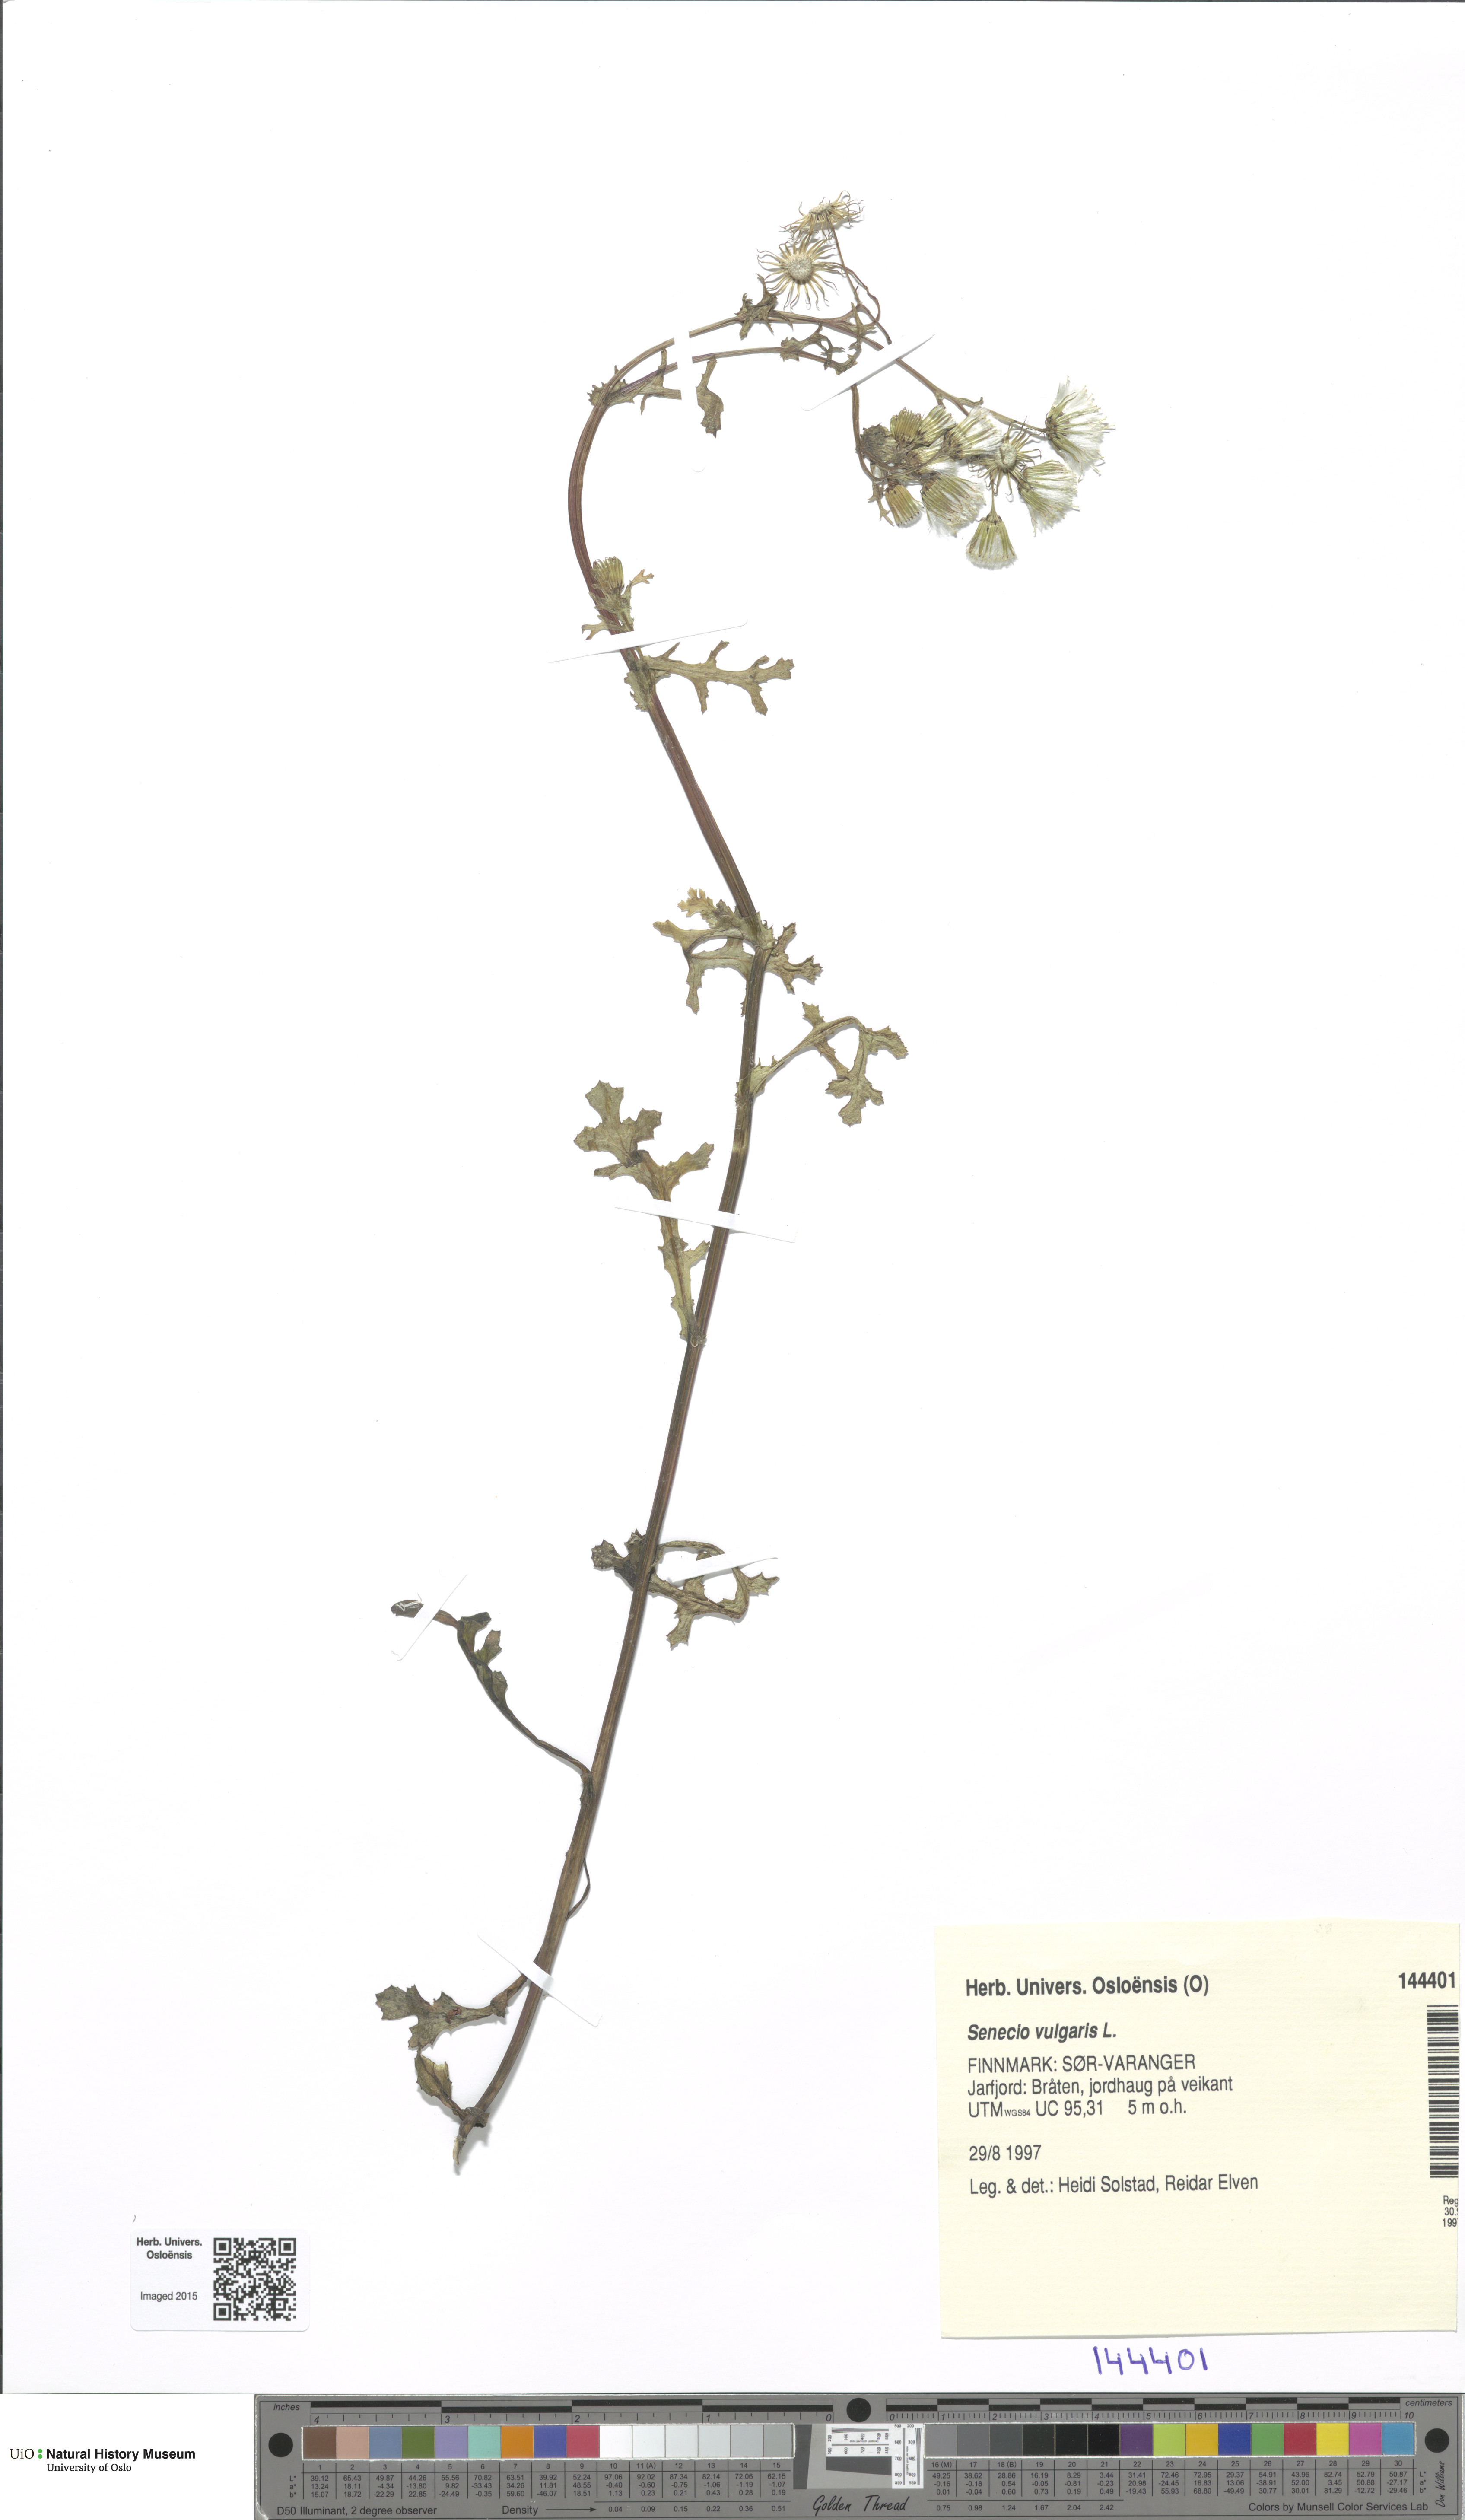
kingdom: Plantae
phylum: Tracheophyta
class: Magnoliopsida
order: Asterales
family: Asteraceae
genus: Senecio
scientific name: Senecio vulgaris
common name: Old-man-in-the-spring
